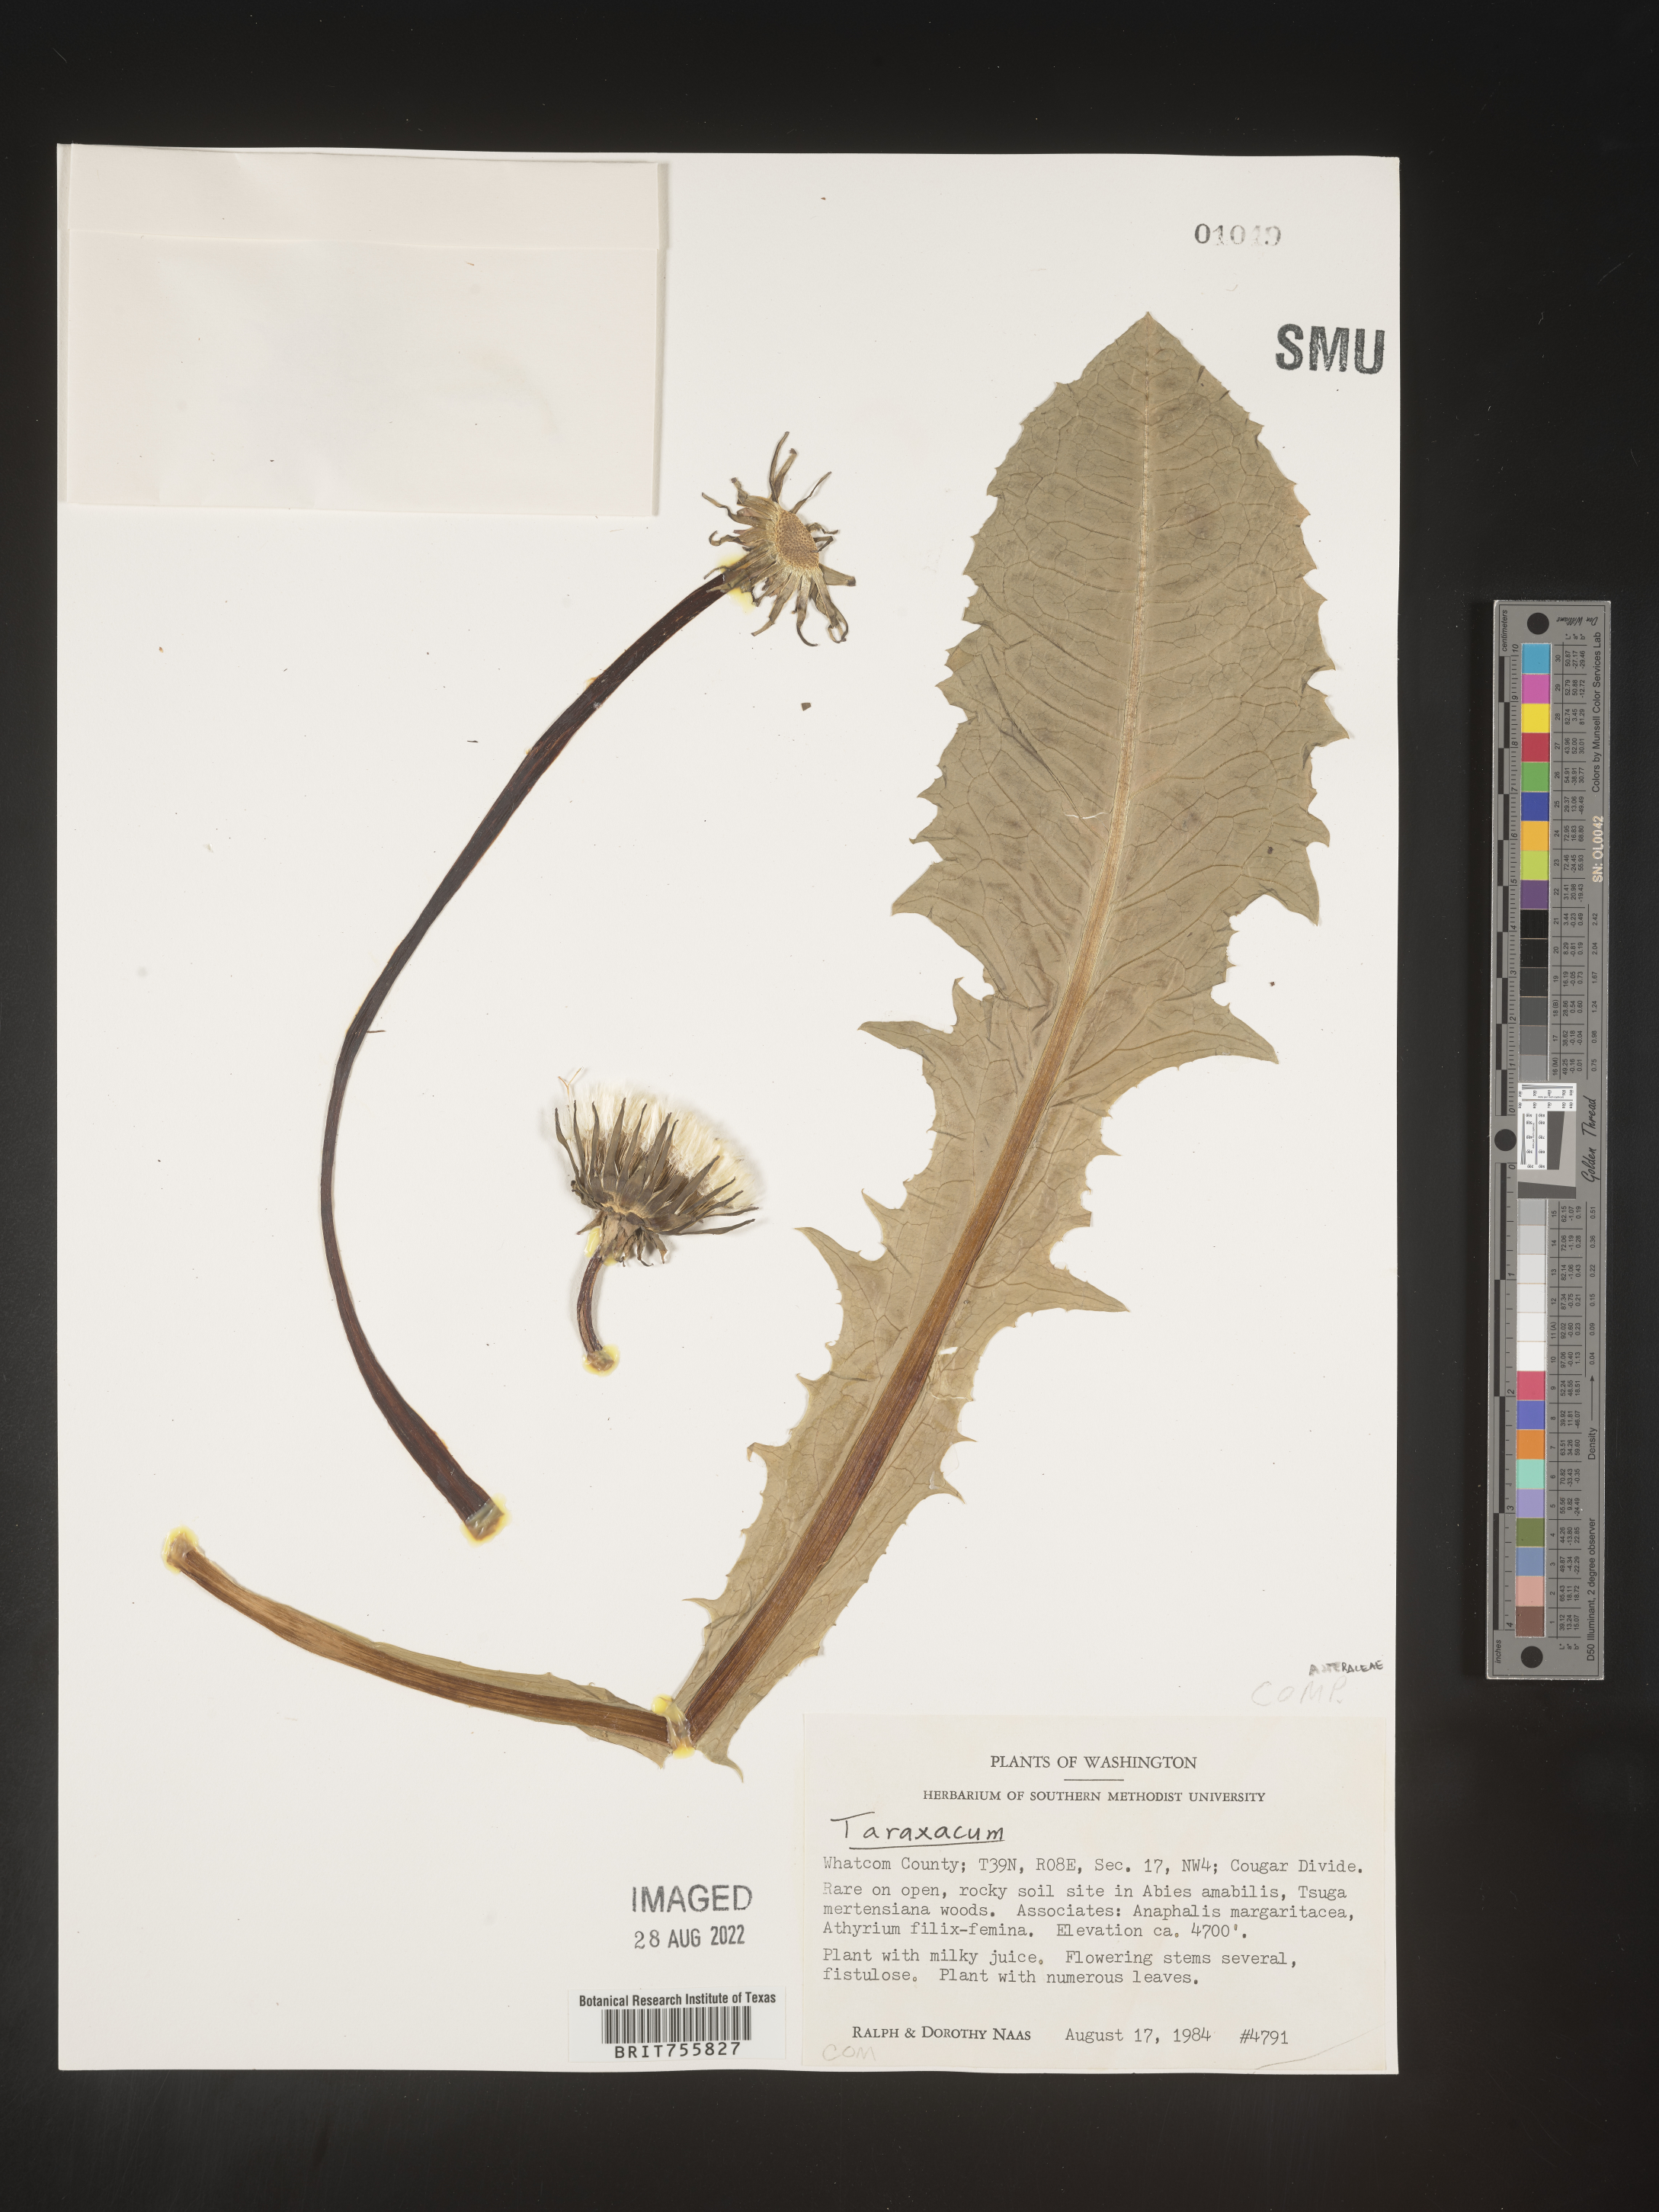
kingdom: Plantae
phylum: Tracheophyta
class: Magnoliopsida
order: Asterales
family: Asteraceae
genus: Taraxacum
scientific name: Taraxacum
